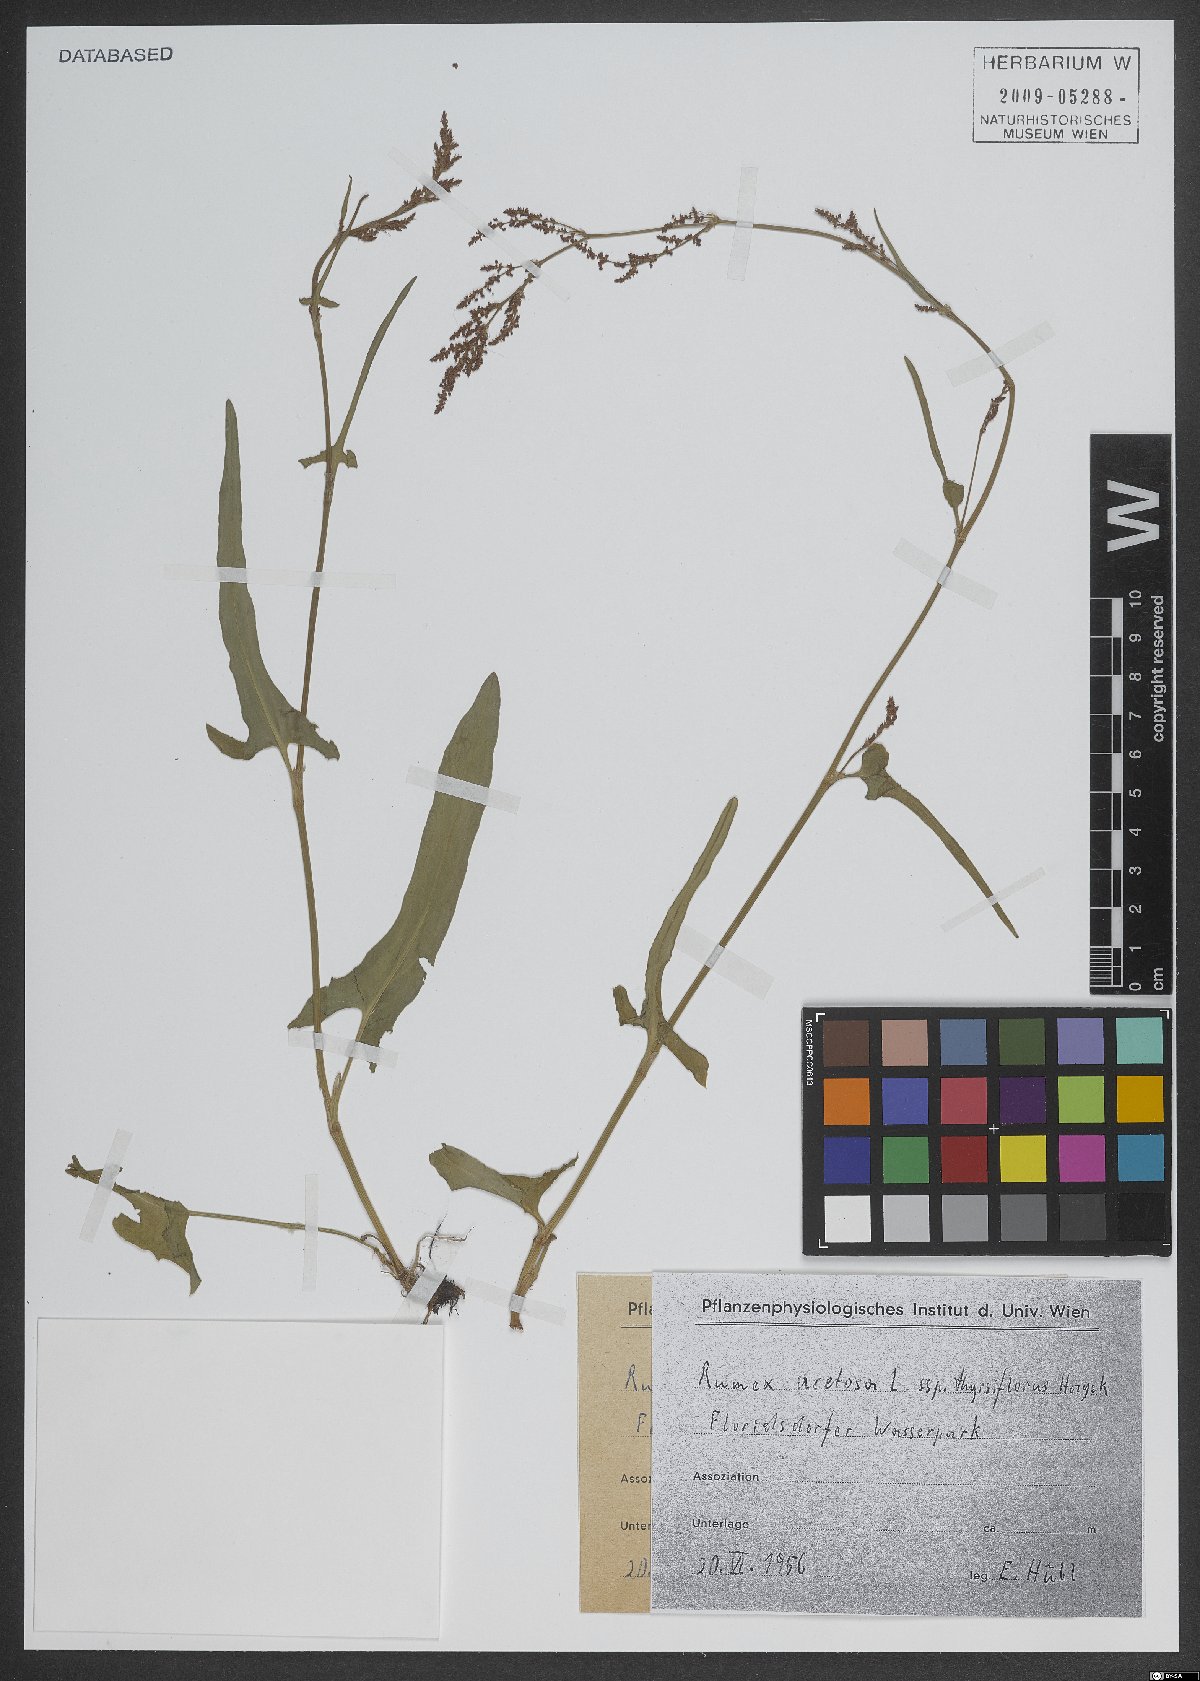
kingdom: Plantae
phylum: Tracheophyta
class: Magnoliopsida
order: Caryophyllales
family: Polygonaceae
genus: Rumex
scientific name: Rumex acetosa
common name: Garden sorrel
